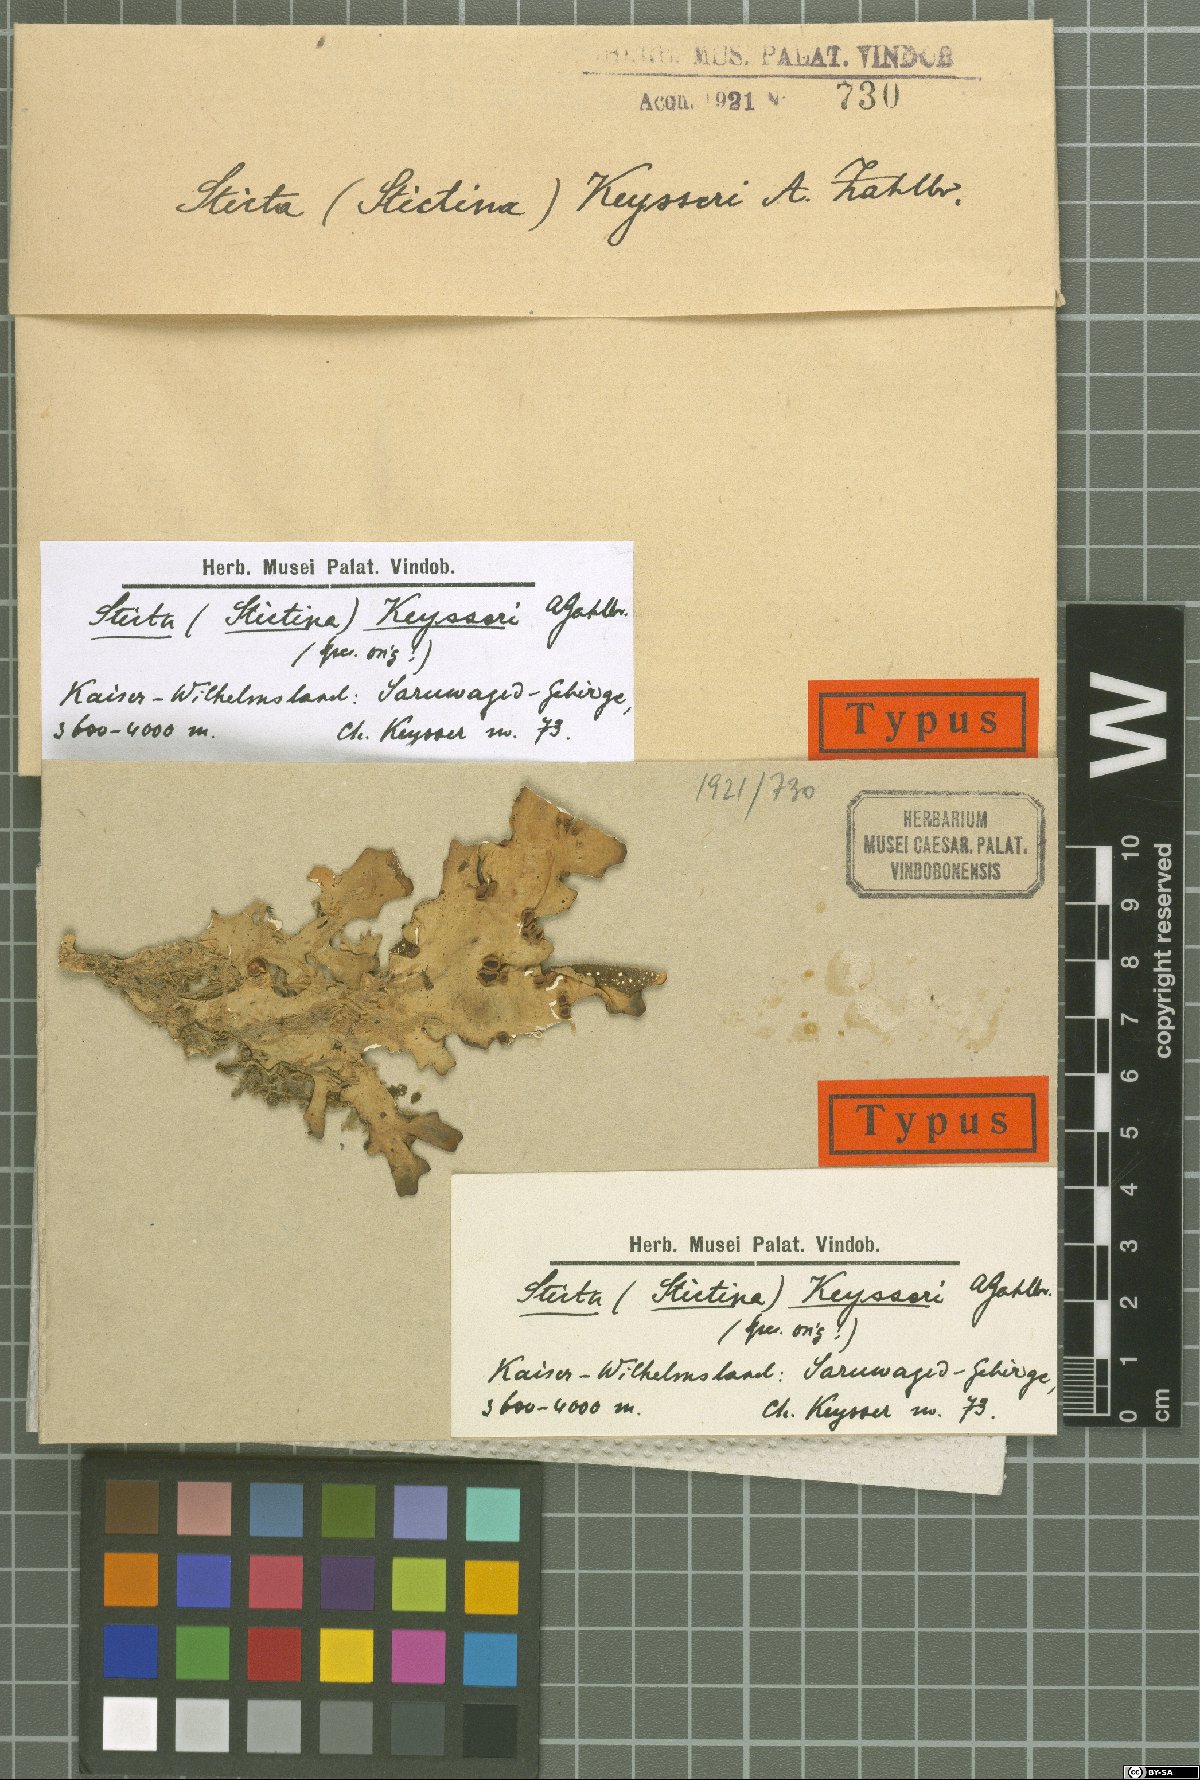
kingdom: Fungi
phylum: Ascomycota
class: Lecanoromycetes
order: Peltigerales
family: Lobariaceae
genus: Sticta
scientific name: Sticta
